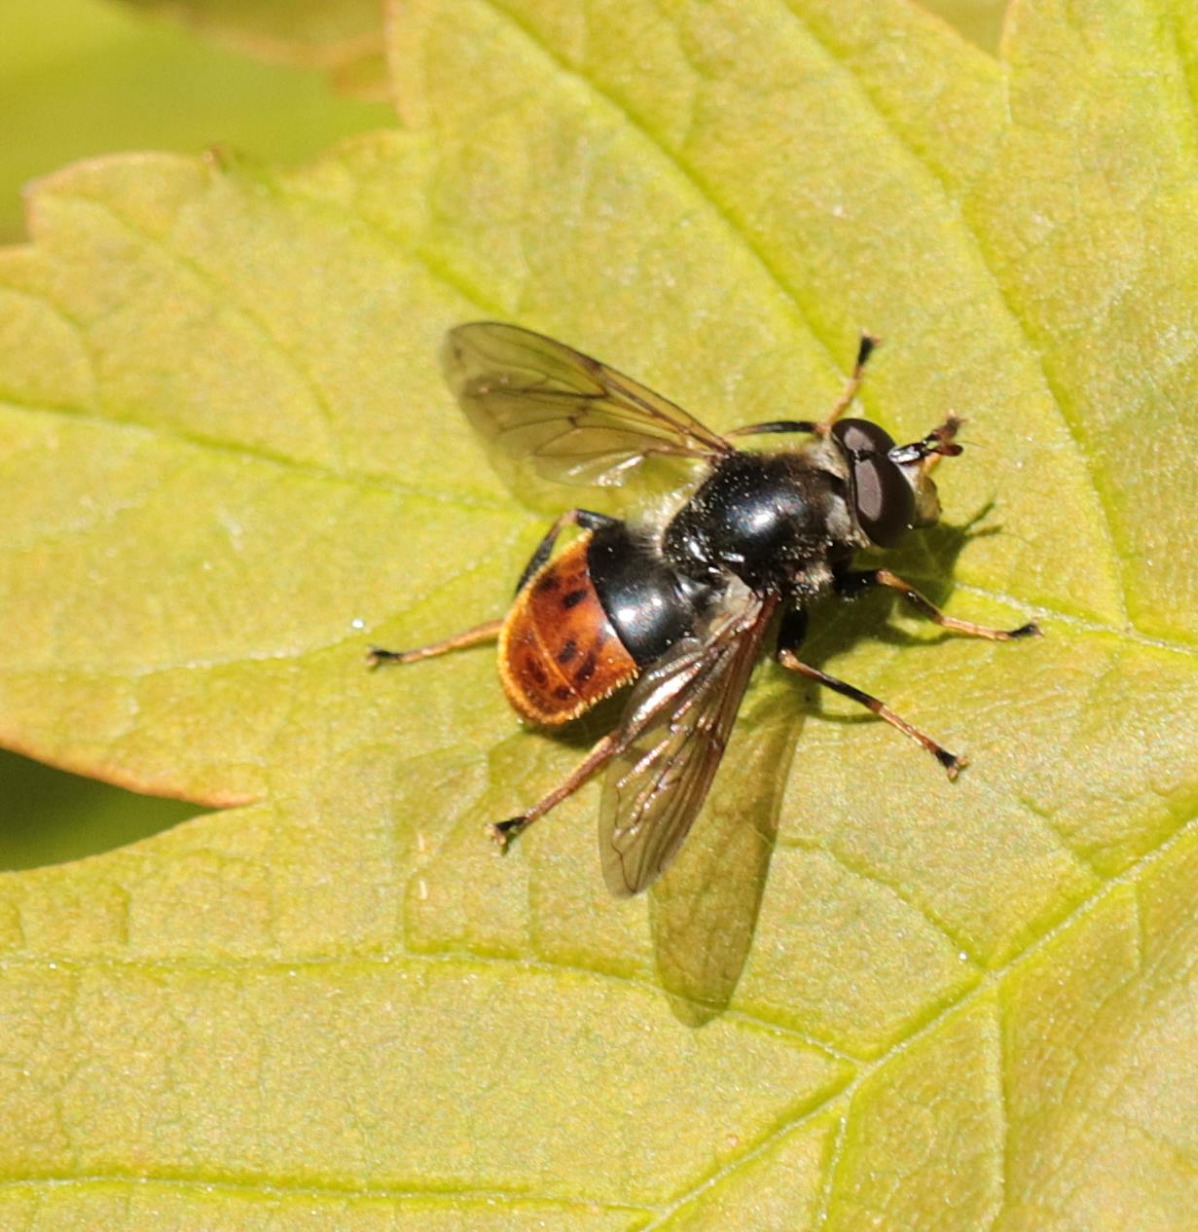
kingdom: Animalia
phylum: Arthropoda
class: Insecta
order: Diptera
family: Syrphidae
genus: Blera
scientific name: Blera fallax
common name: Stub-svirreflue
